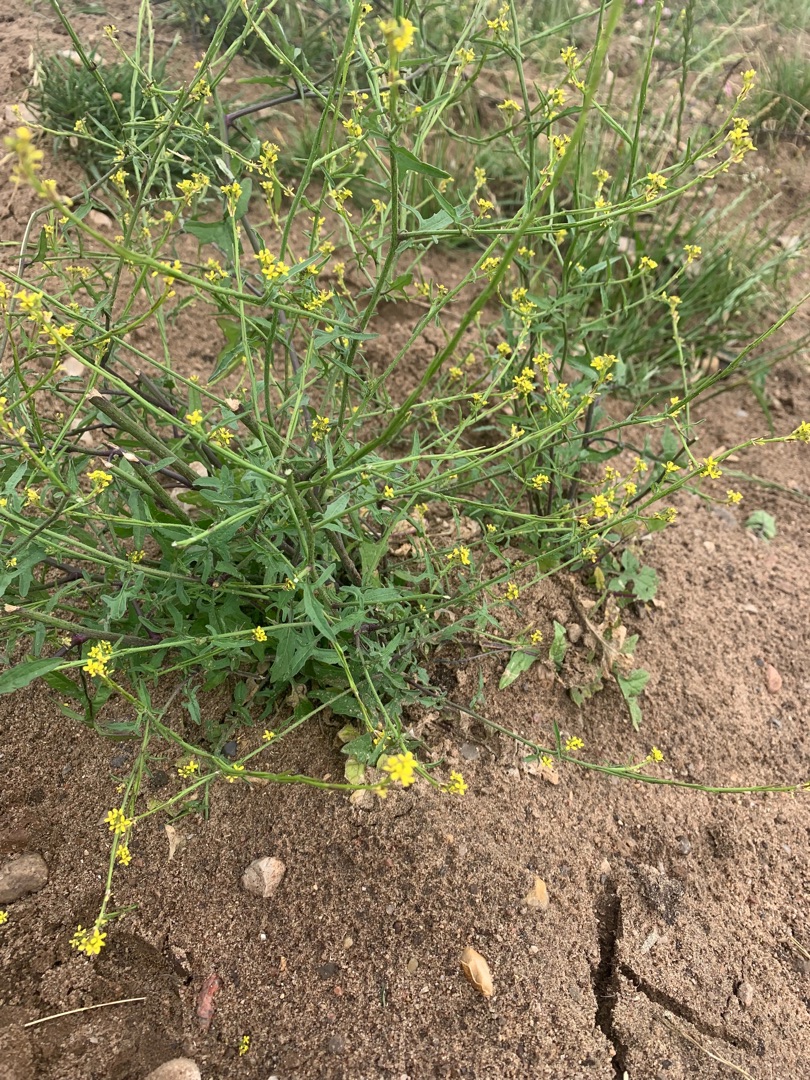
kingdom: Plantae
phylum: Tracheophyta
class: Magnoliopsida
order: Brassicales
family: Brassicaceae
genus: Sisymbrium
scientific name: Sisymbrium officinale
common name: Rank vejsennep
